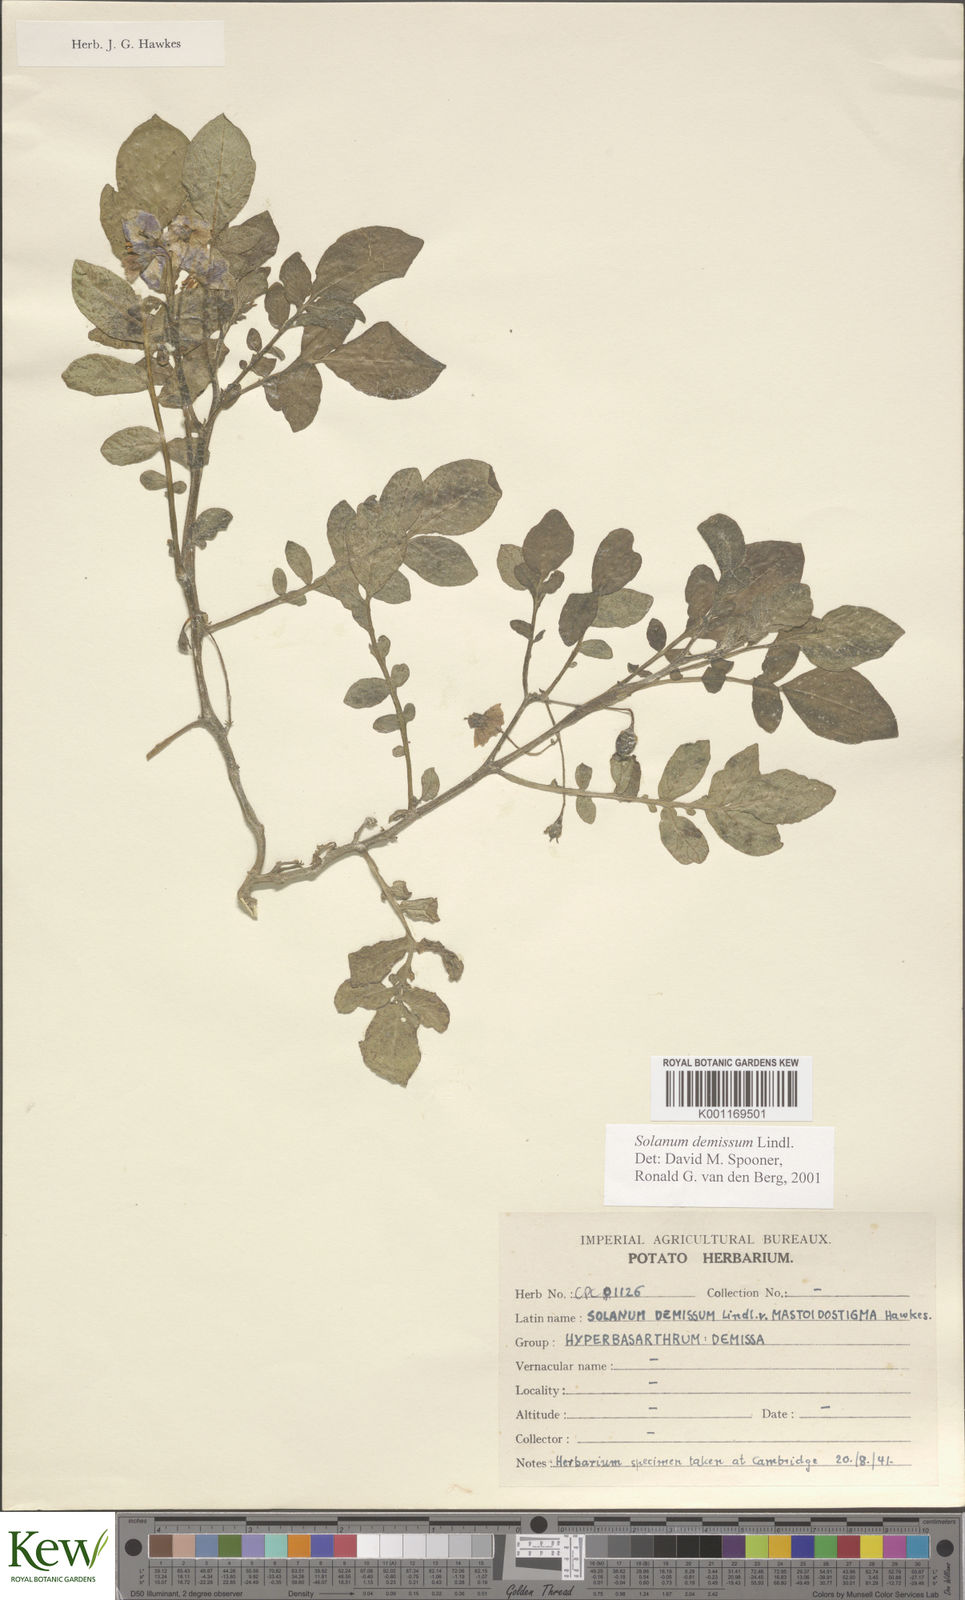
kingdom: Plantae
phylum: Tracheophyta
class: Magnoliopsida
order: Solanales
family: Solanaceae
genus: Solanum
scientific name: Solanum demissum
